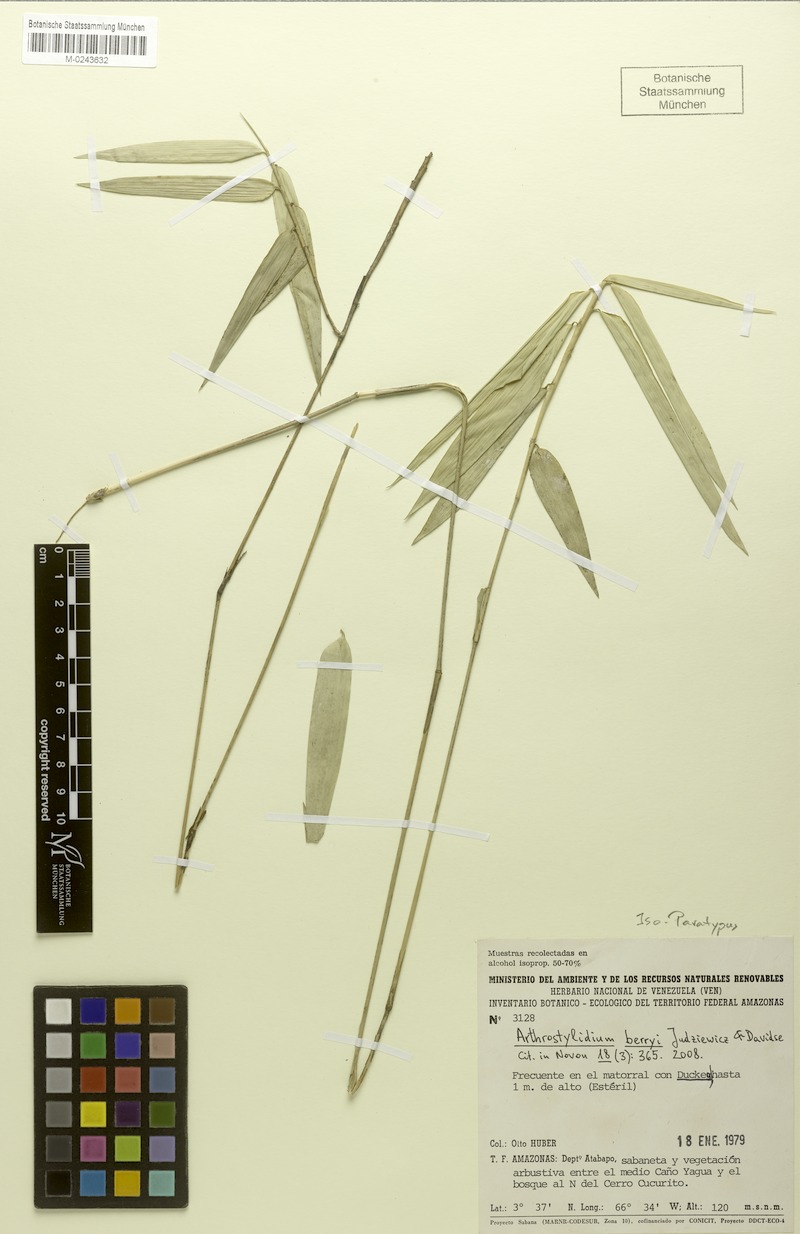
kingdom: Plantae
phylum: Tracheophyta
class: Liliopsida
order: Poales
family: Poaceae
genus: Arthrostylidium
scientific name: Arthrostylidium berryi
